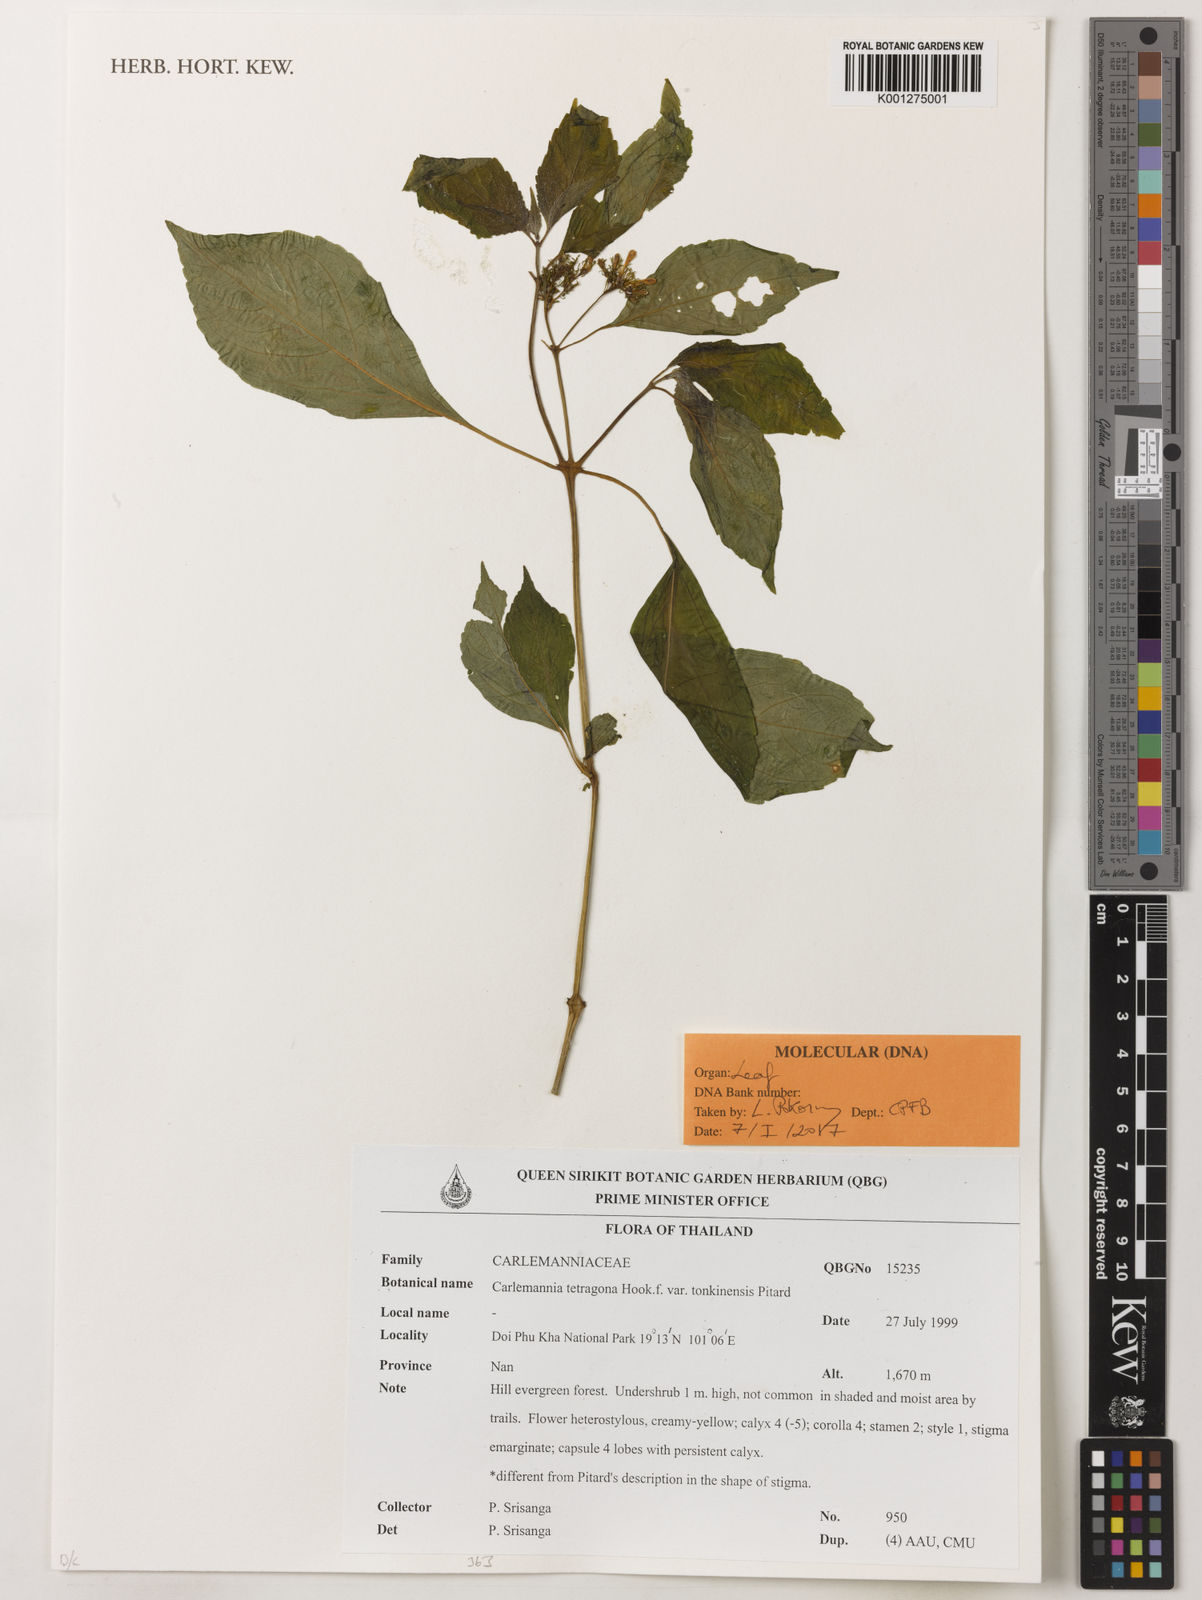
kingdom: Plantae
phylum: Tracheophyta
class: Magnoliopsida
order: Lamiales
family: Carlemanniaceae
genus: Carlemannia
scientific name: Carlemannia tetragona
